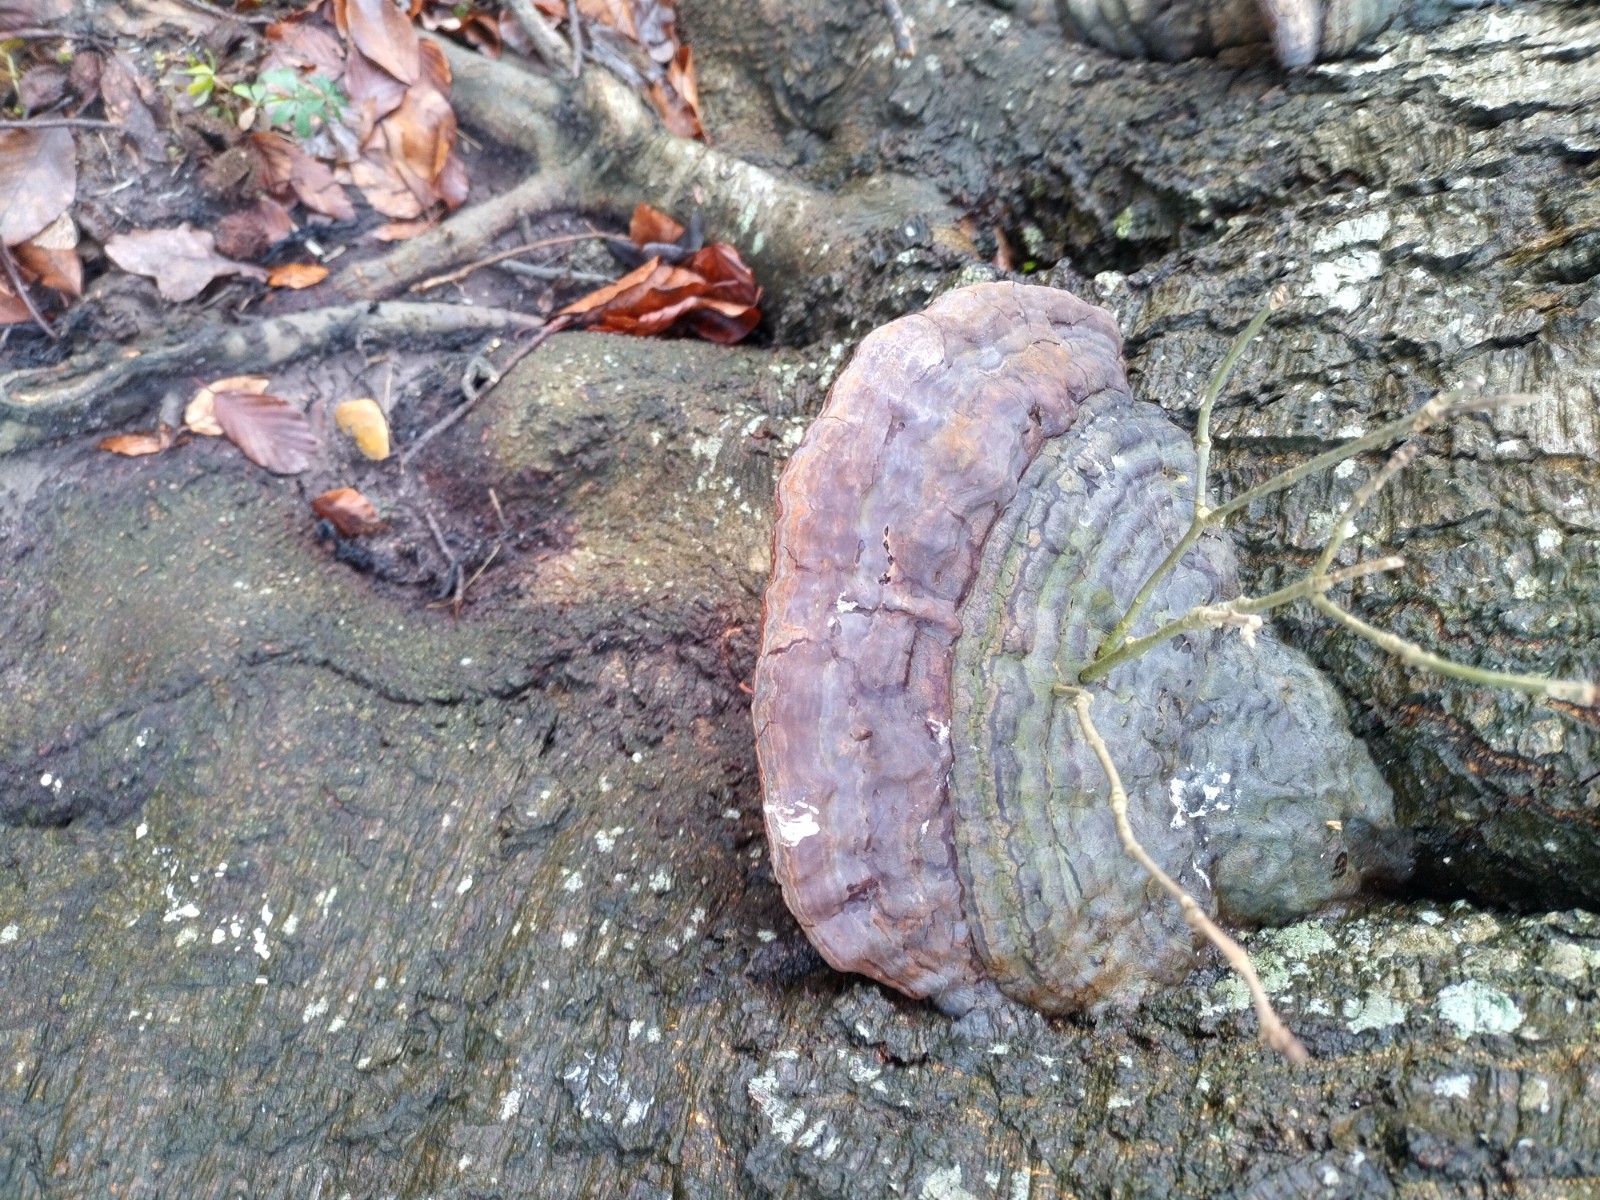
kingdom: Fungi
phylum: Basidiomycota
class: Agaricomycetes
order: Polyporales
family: Polyporaceae
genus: Ganoderma
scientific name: Ganoderma pfeifferi
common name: kobberrød lakporesvamp
